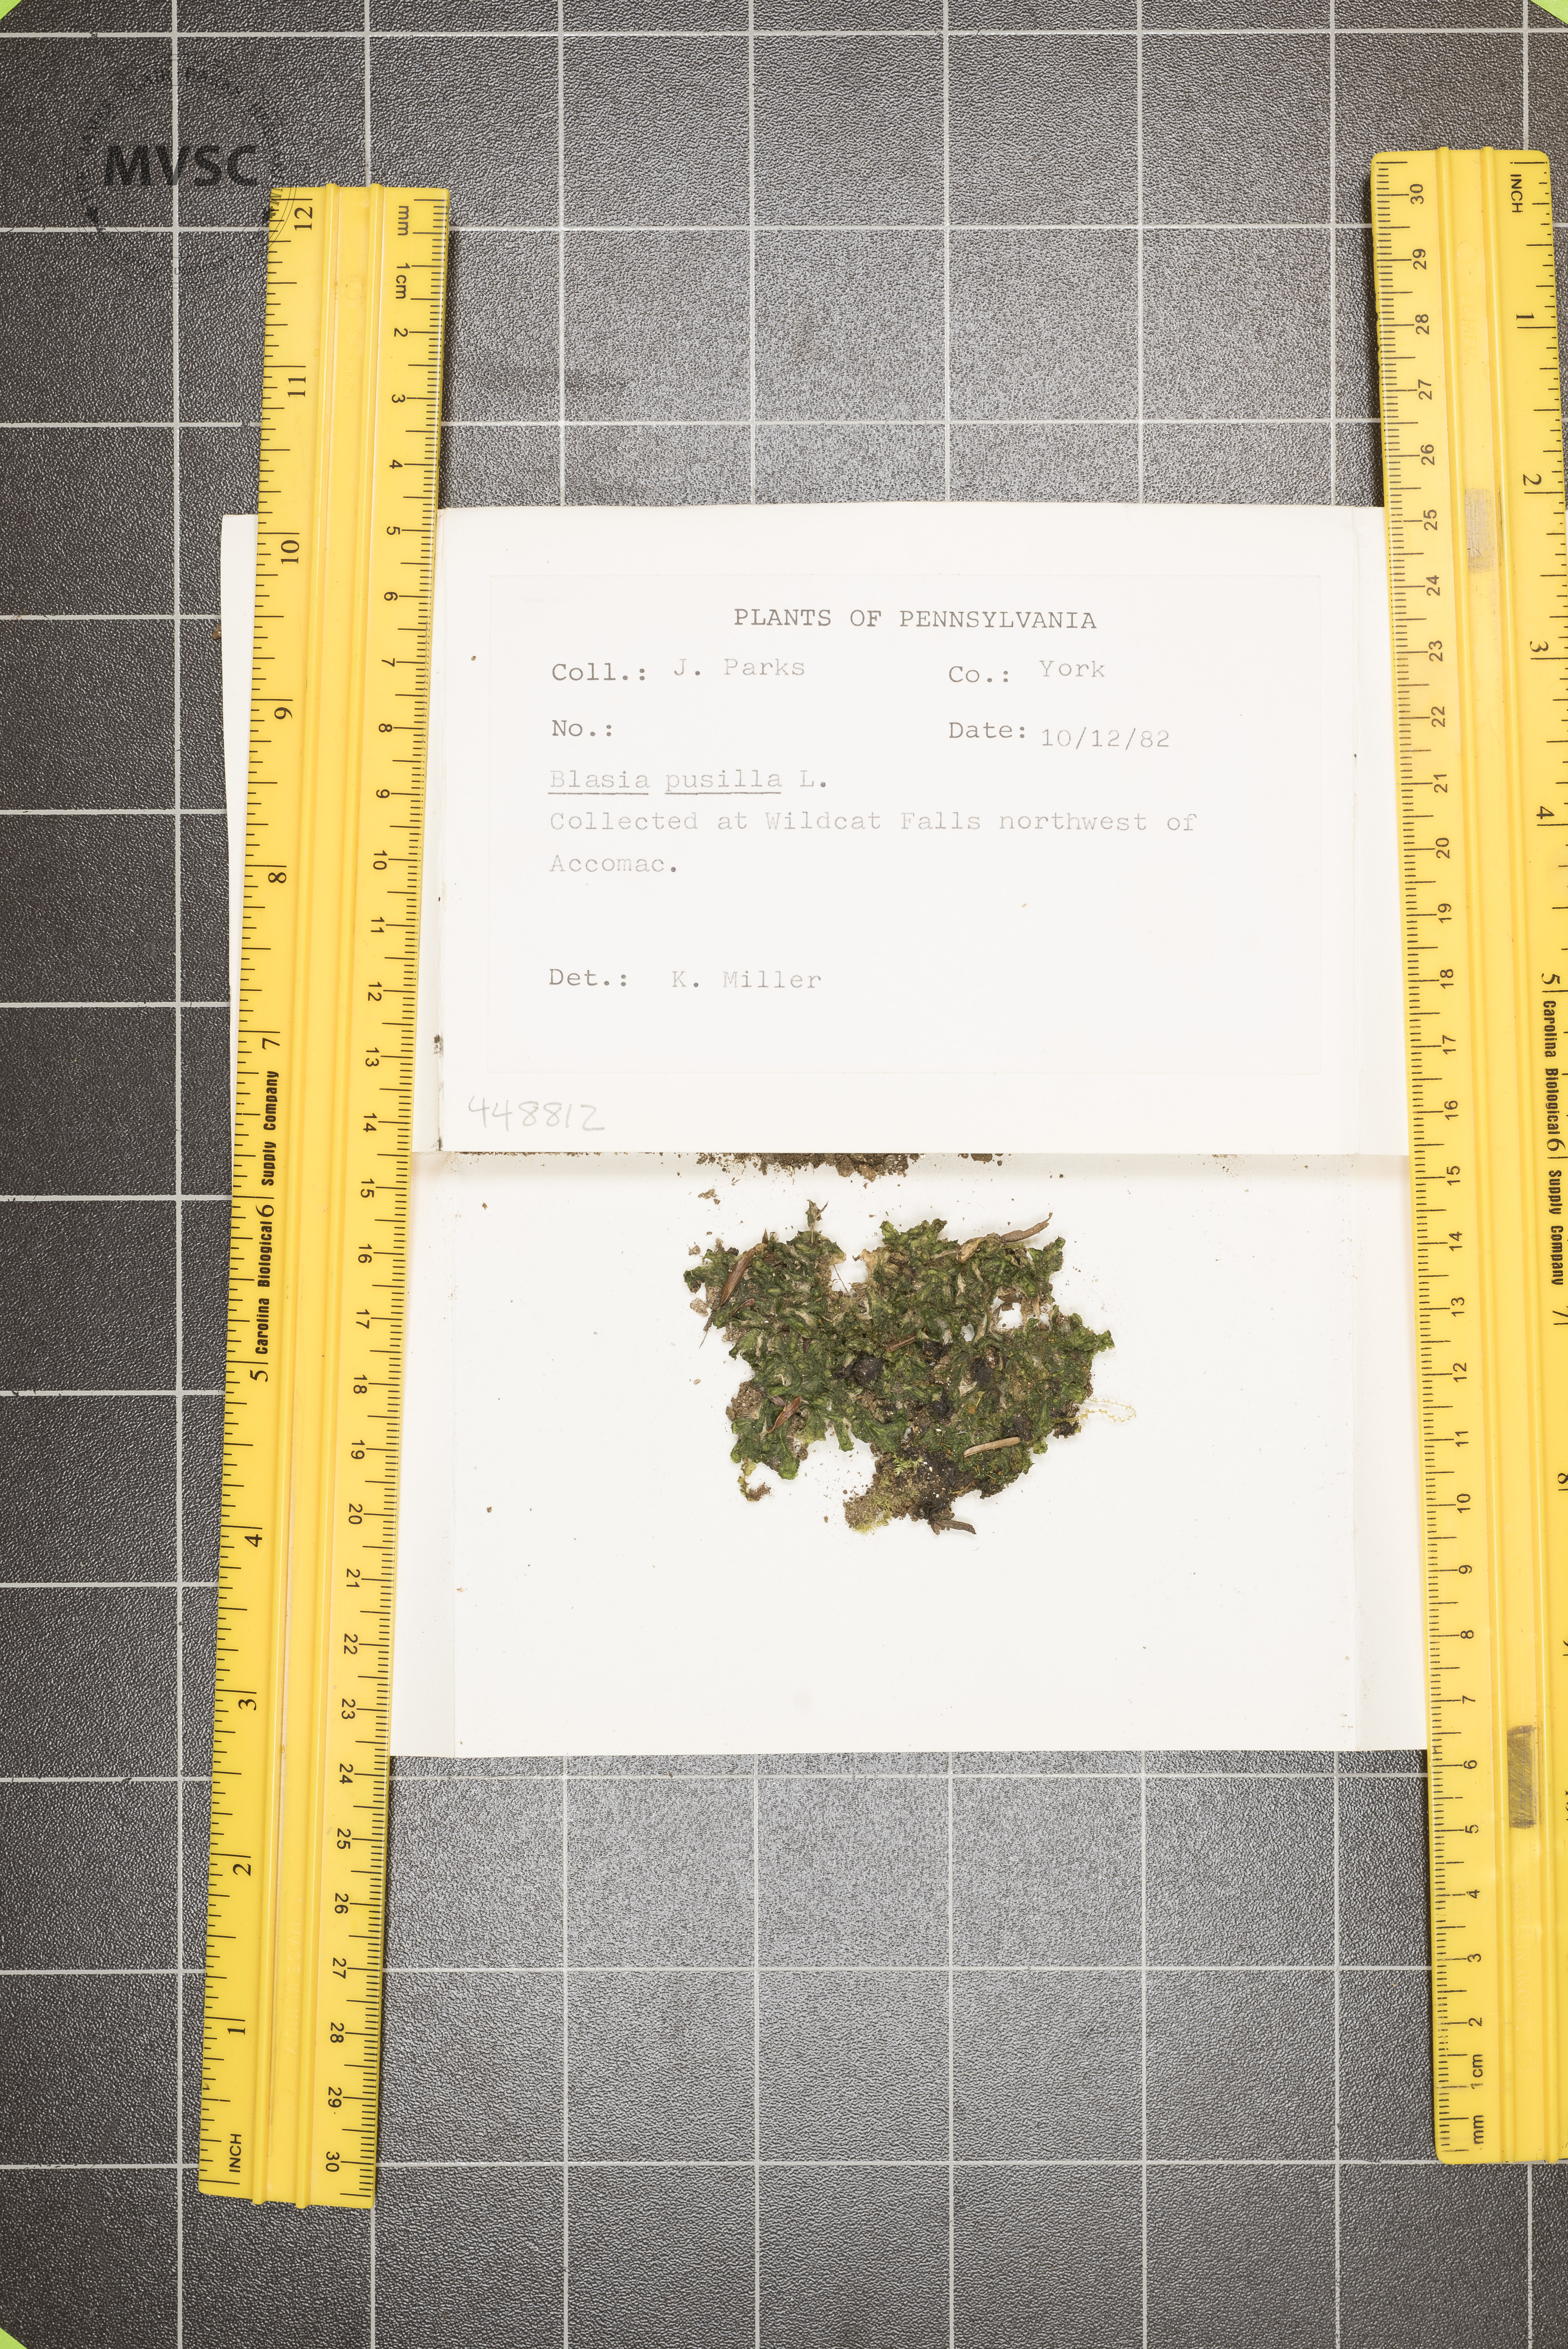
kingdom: Plantae
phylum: Marchantiophyta
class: Marchantiopsida
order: Blasiales
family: Blasiaceae
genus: Blasia
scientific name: Blasia pusilla
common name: Common kettlewort
